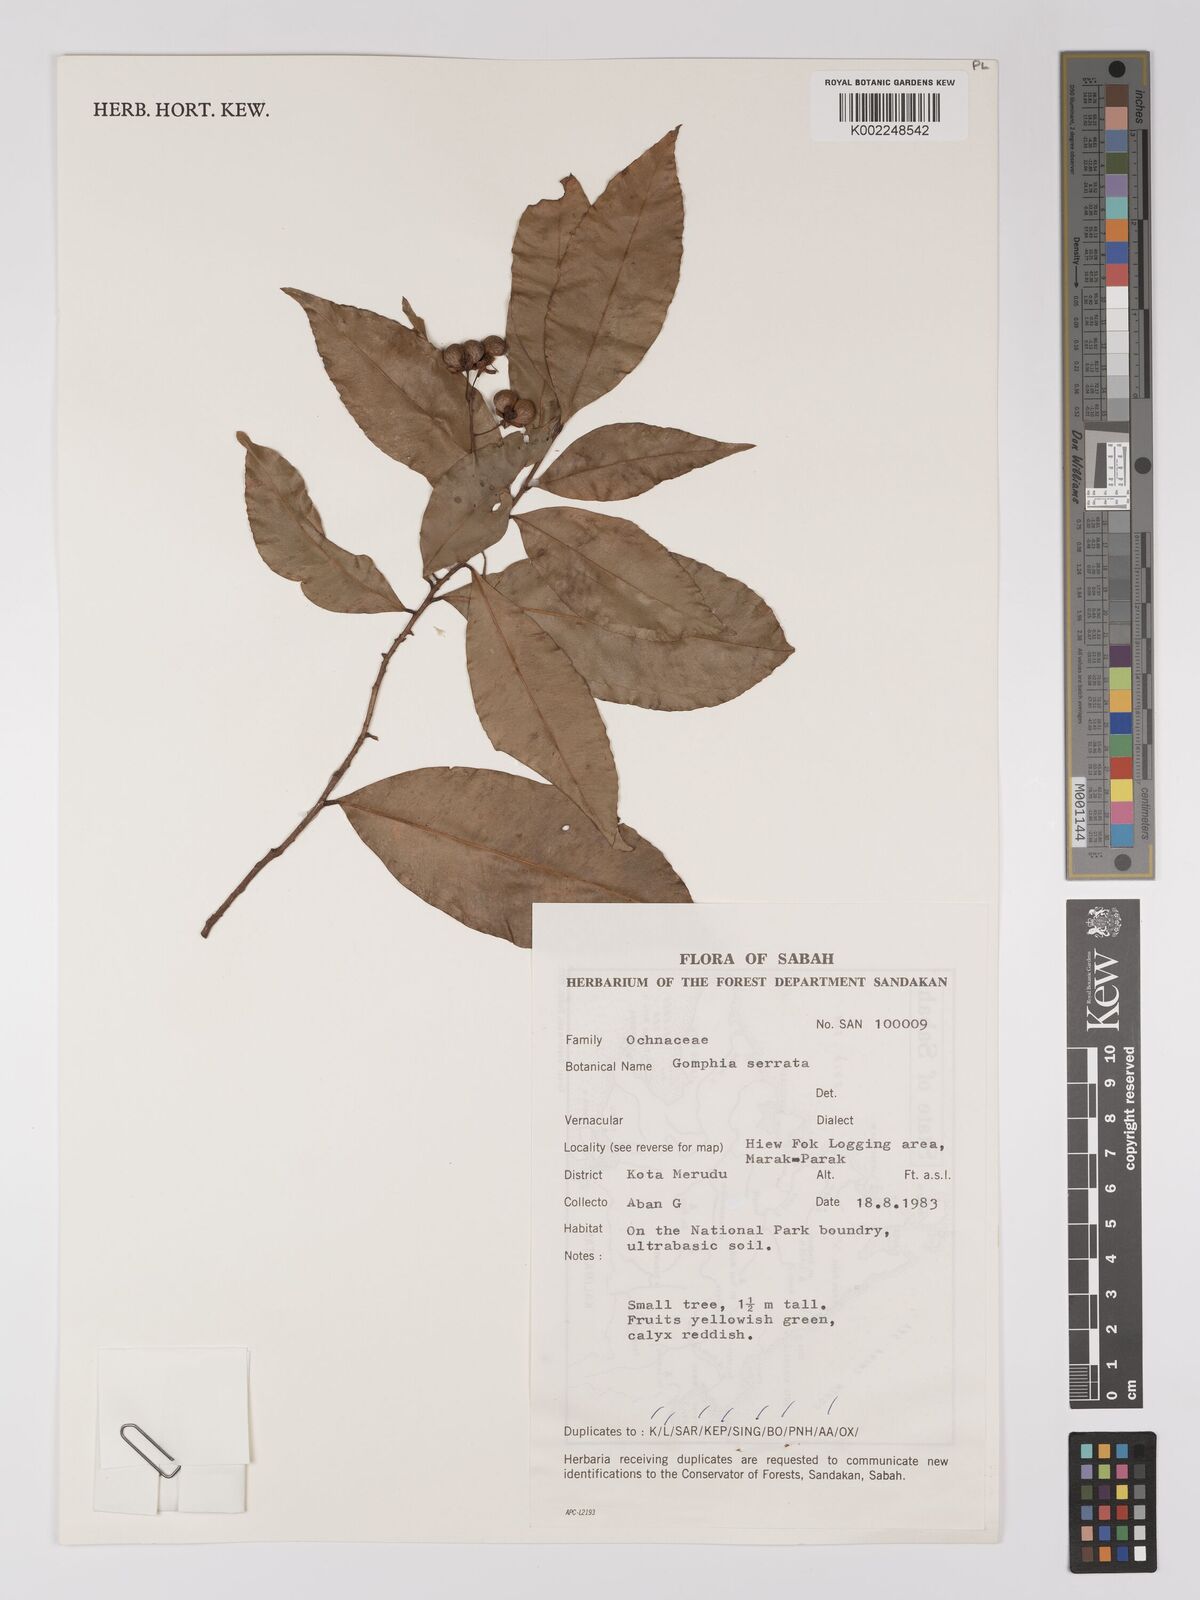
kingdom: Plantae
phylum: Tracheophyta
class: Magnoliopsida
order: Malpighiales
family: Ochnaceae
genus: Gomphia
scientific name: Gomphia serrata
